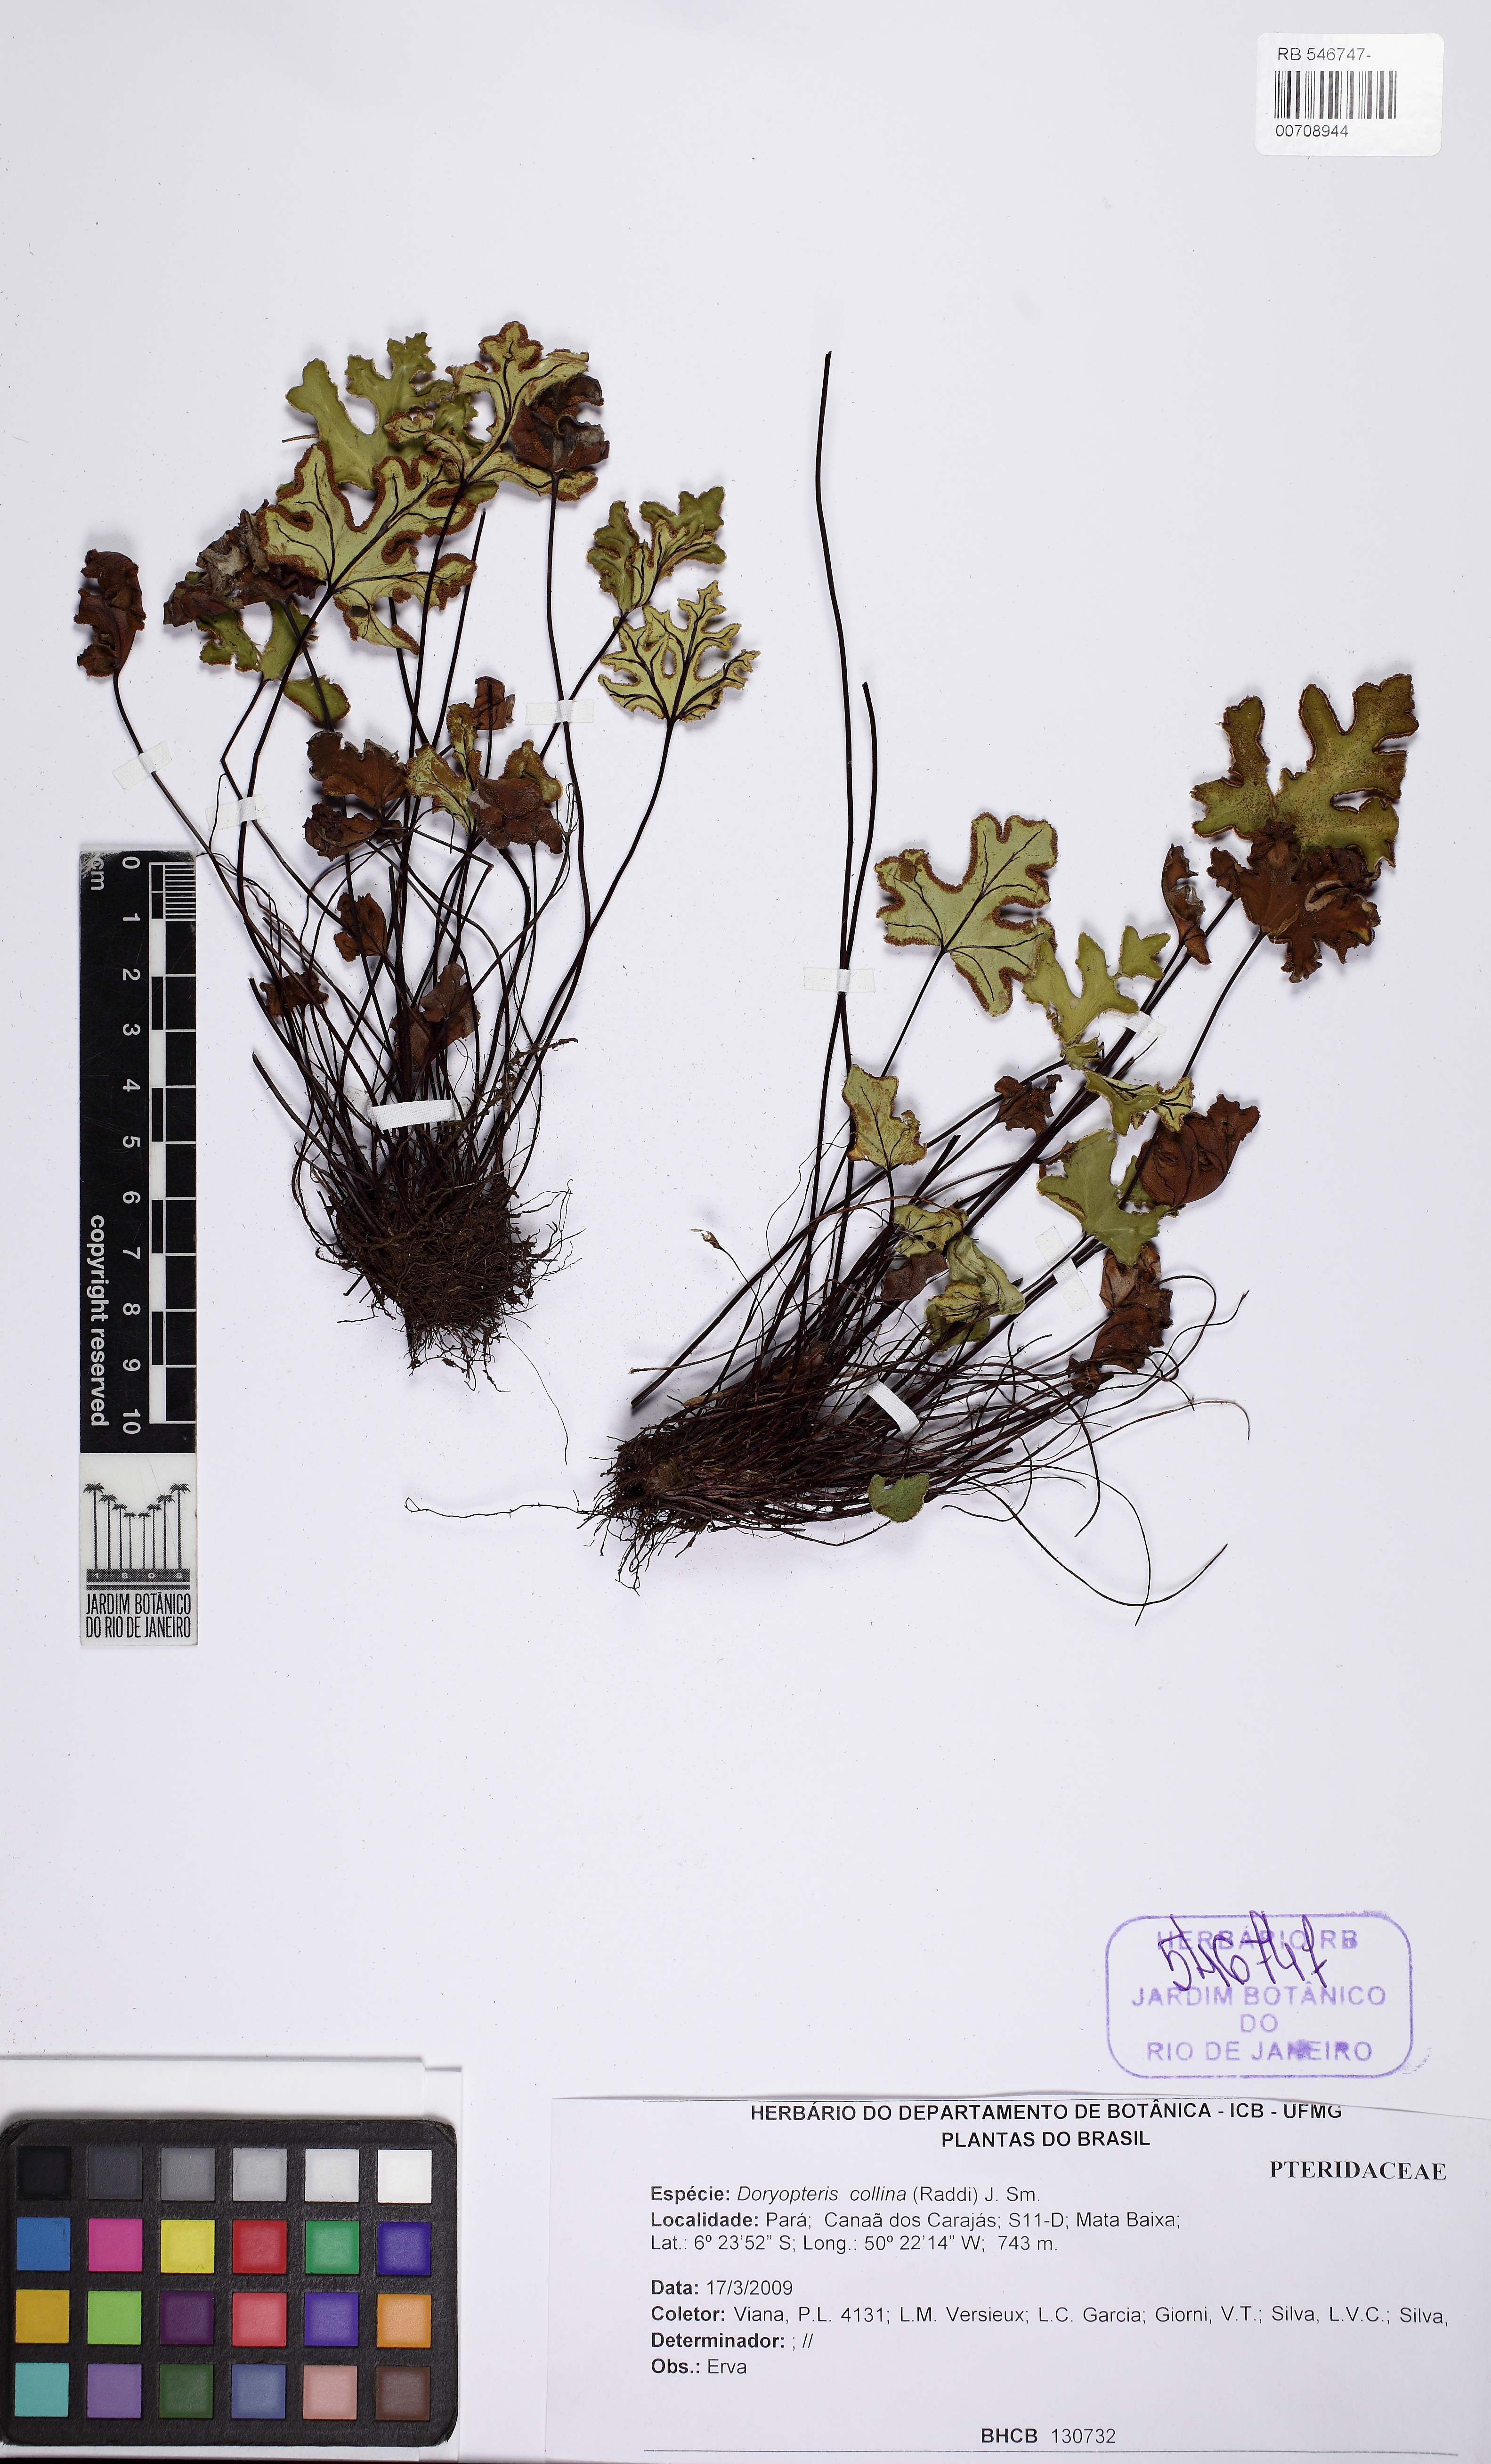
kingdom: Plantae
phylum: Tracheophyta
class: Polypodiopsida
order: Polypodiales
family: Pteridaceae
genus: Doryopteris
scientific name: Doryopteris collina
